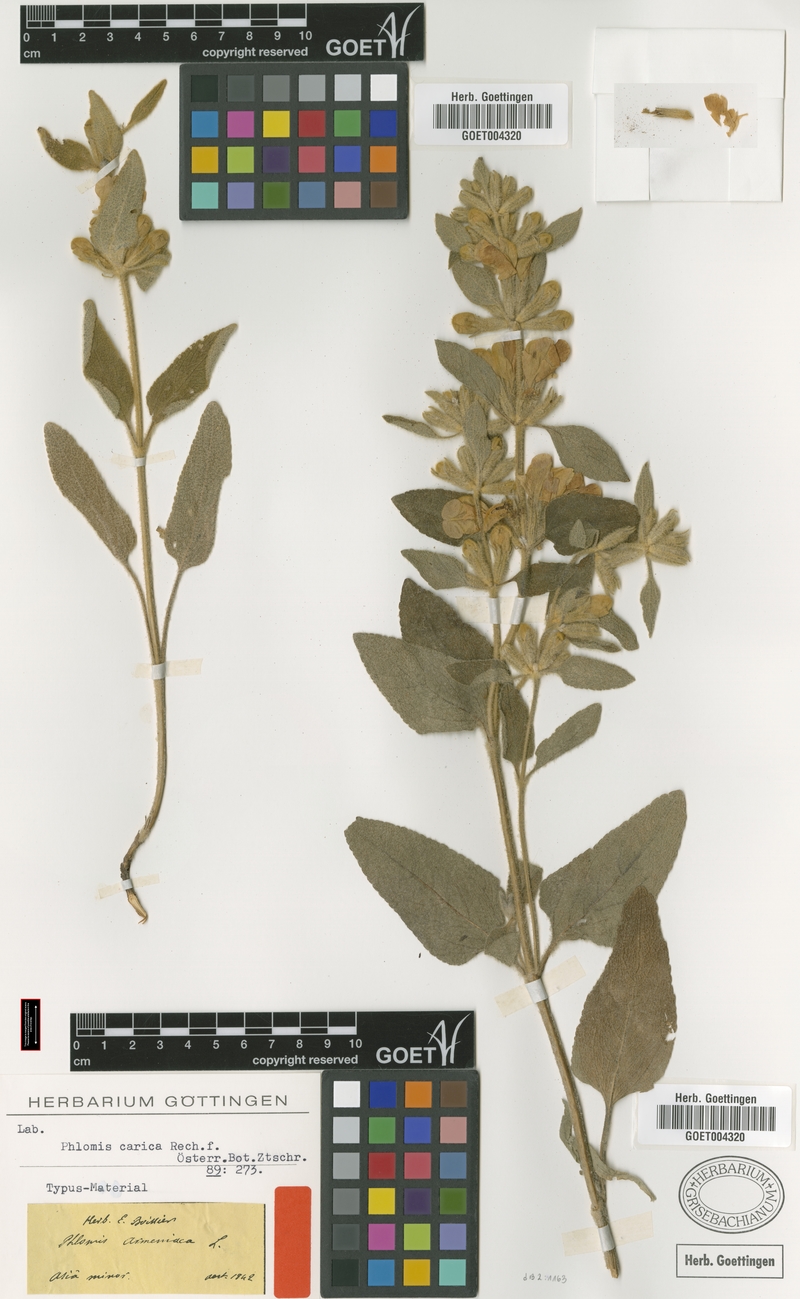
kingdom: Plantae
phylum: Tracheophyta
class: Magnoliopsida
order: Lamiales
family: Lamiaceae
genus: Phlomis
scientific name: Phlomis carica
